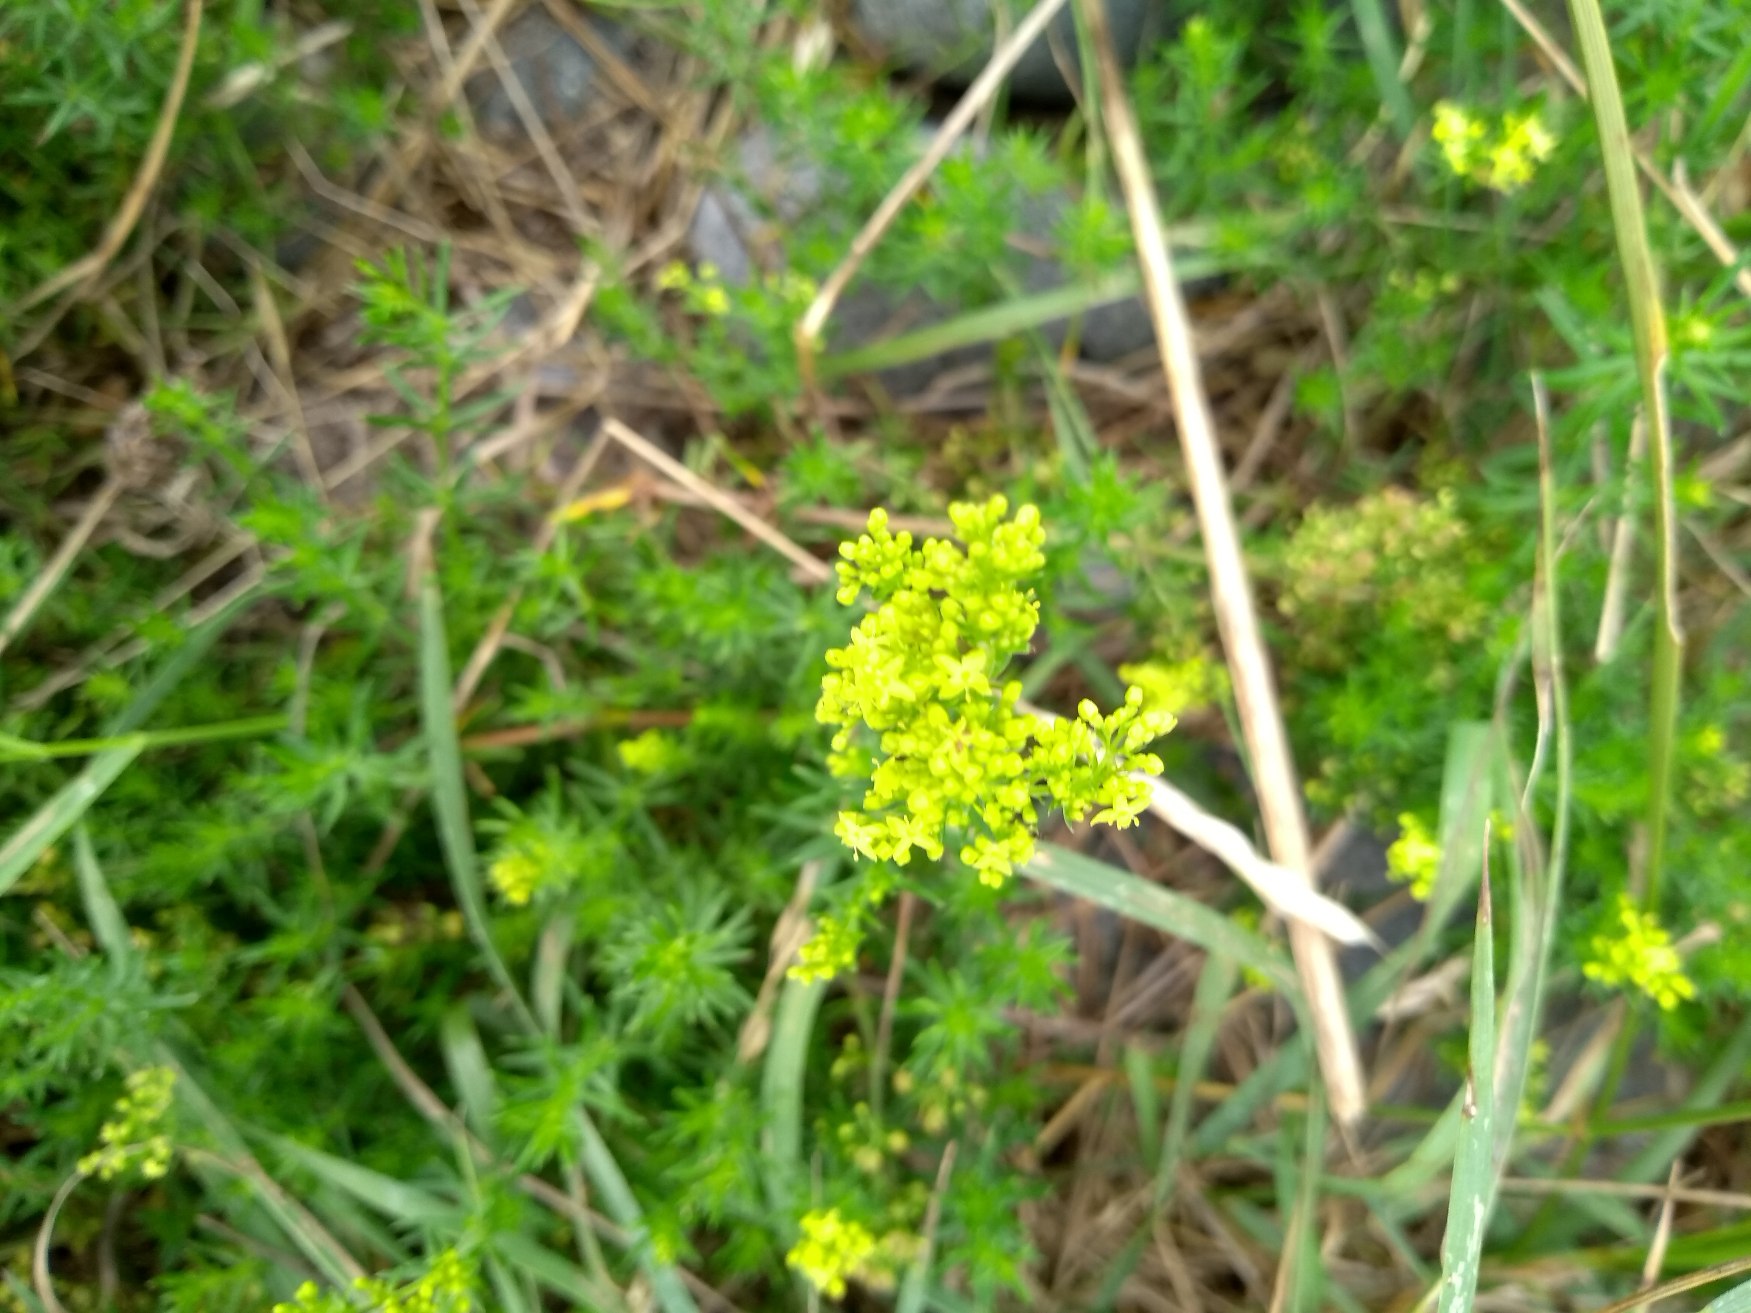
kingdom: Plantae
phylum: Tracheophyta
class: Magnoliopsida
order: Gentianales
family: Rubiaceae
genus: Galium
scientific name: Galium verum
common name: Gul snerre
